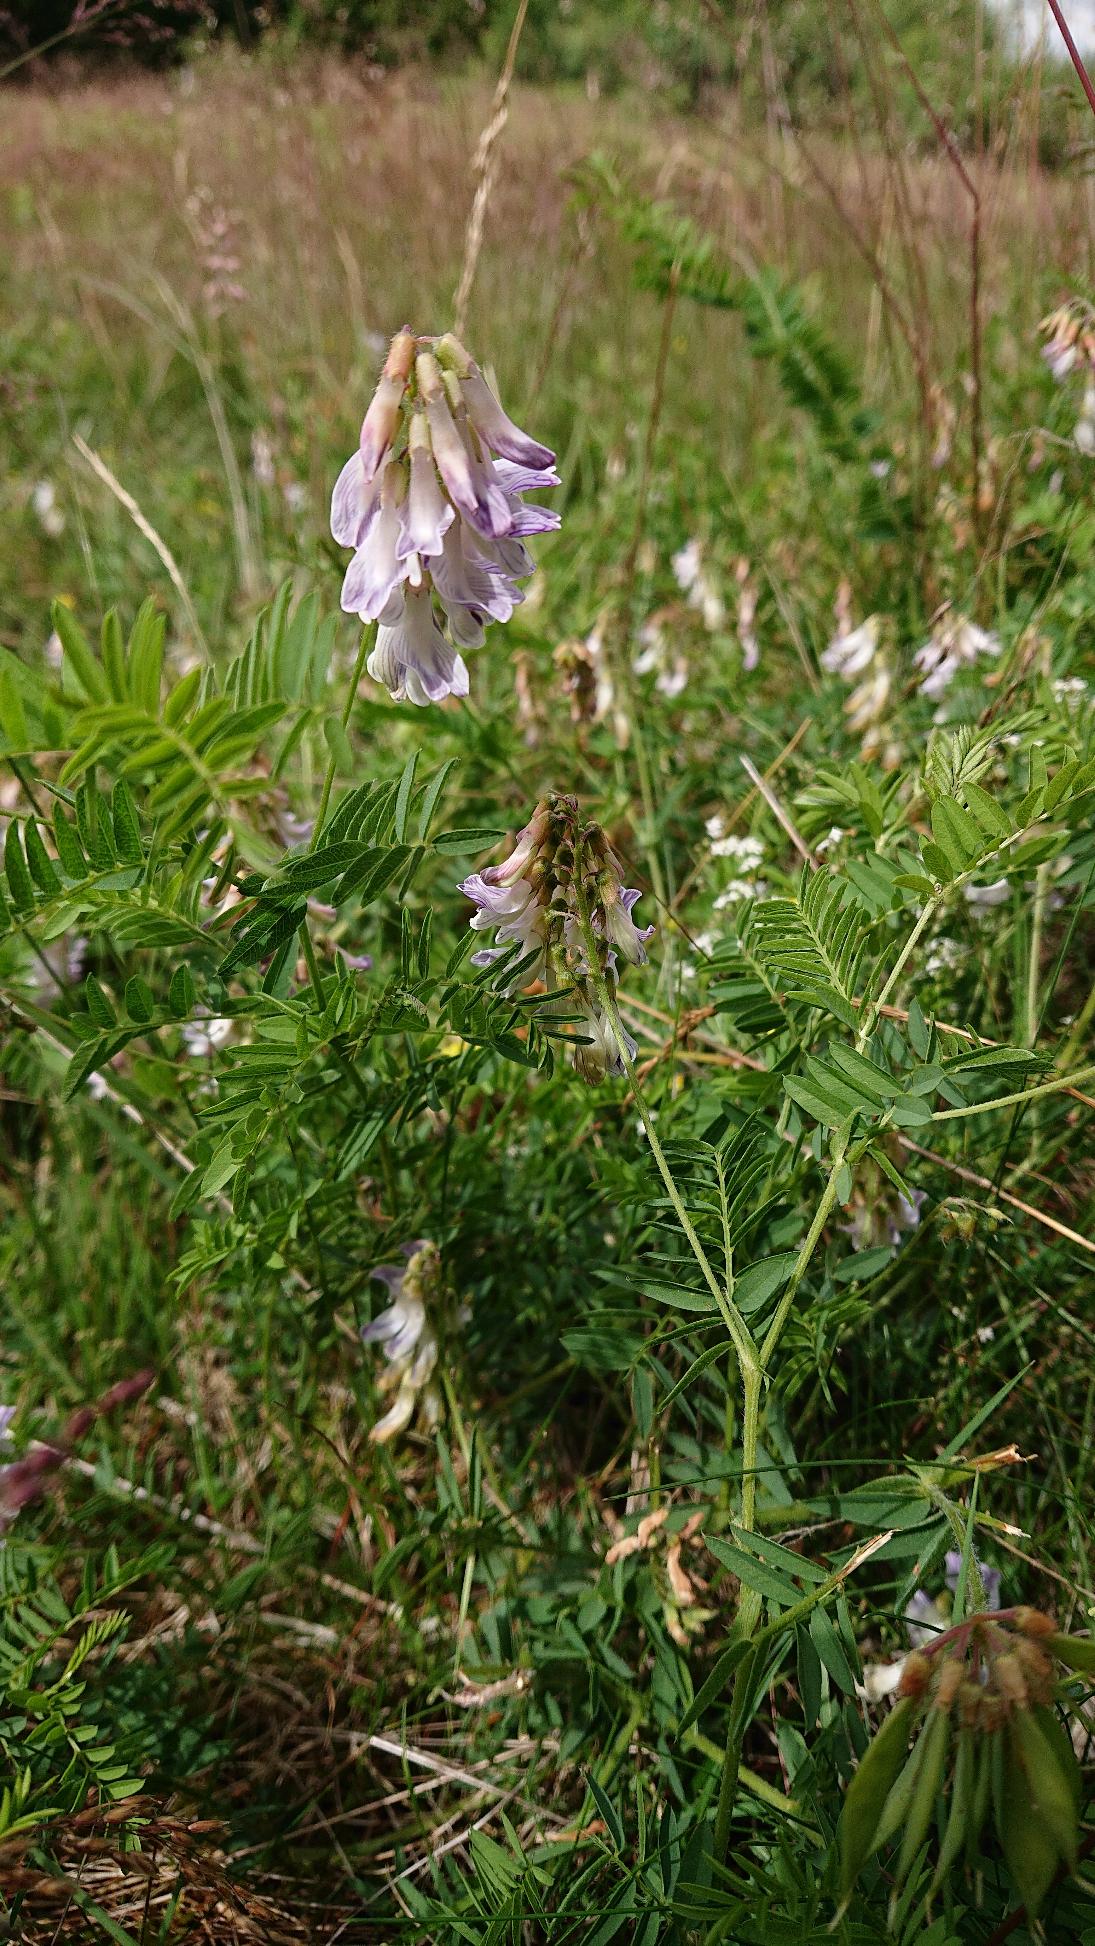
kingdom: Plantae
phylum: Tracheophyta
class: Magnoliopsida
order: Fabales
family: Fabaceae
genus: Vicia
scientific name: Vicia orobus
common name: Lyng-vikke
